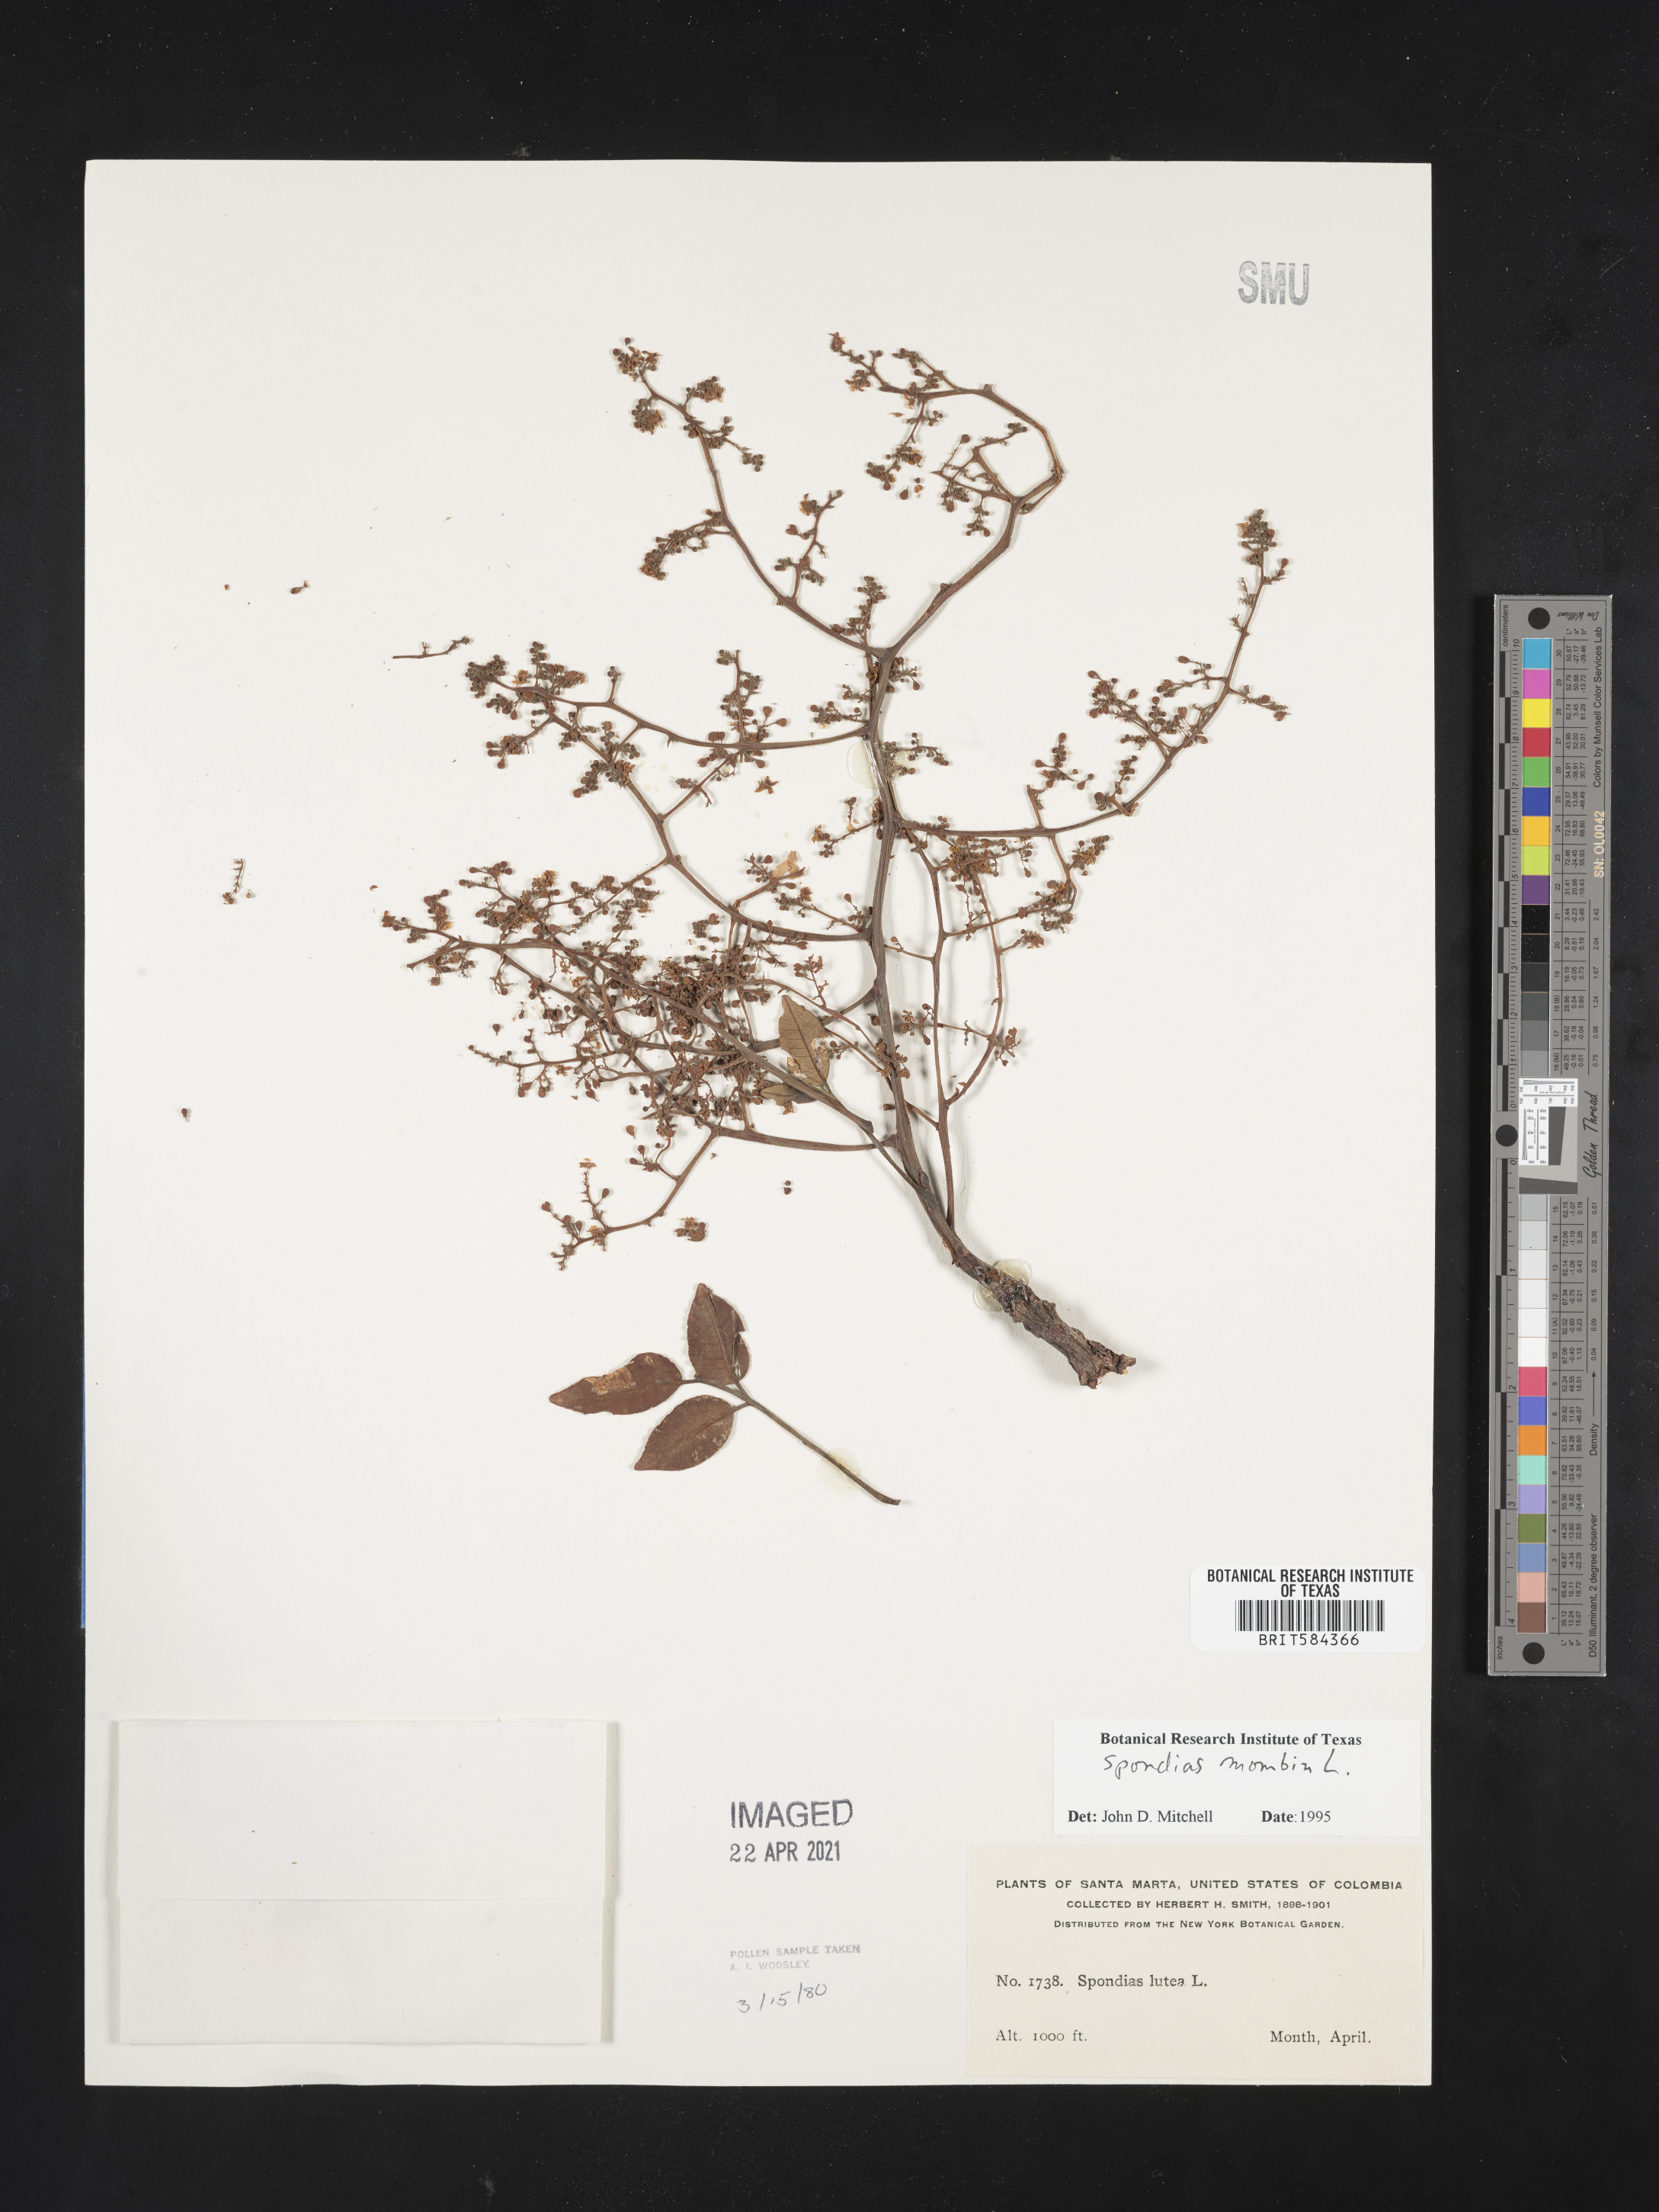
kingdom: Plantae
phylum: Tracheophyta
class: Magnoliopsida
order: Sapindales
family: Anacardiaceae
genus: Spondias
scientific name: Spondias mombin
